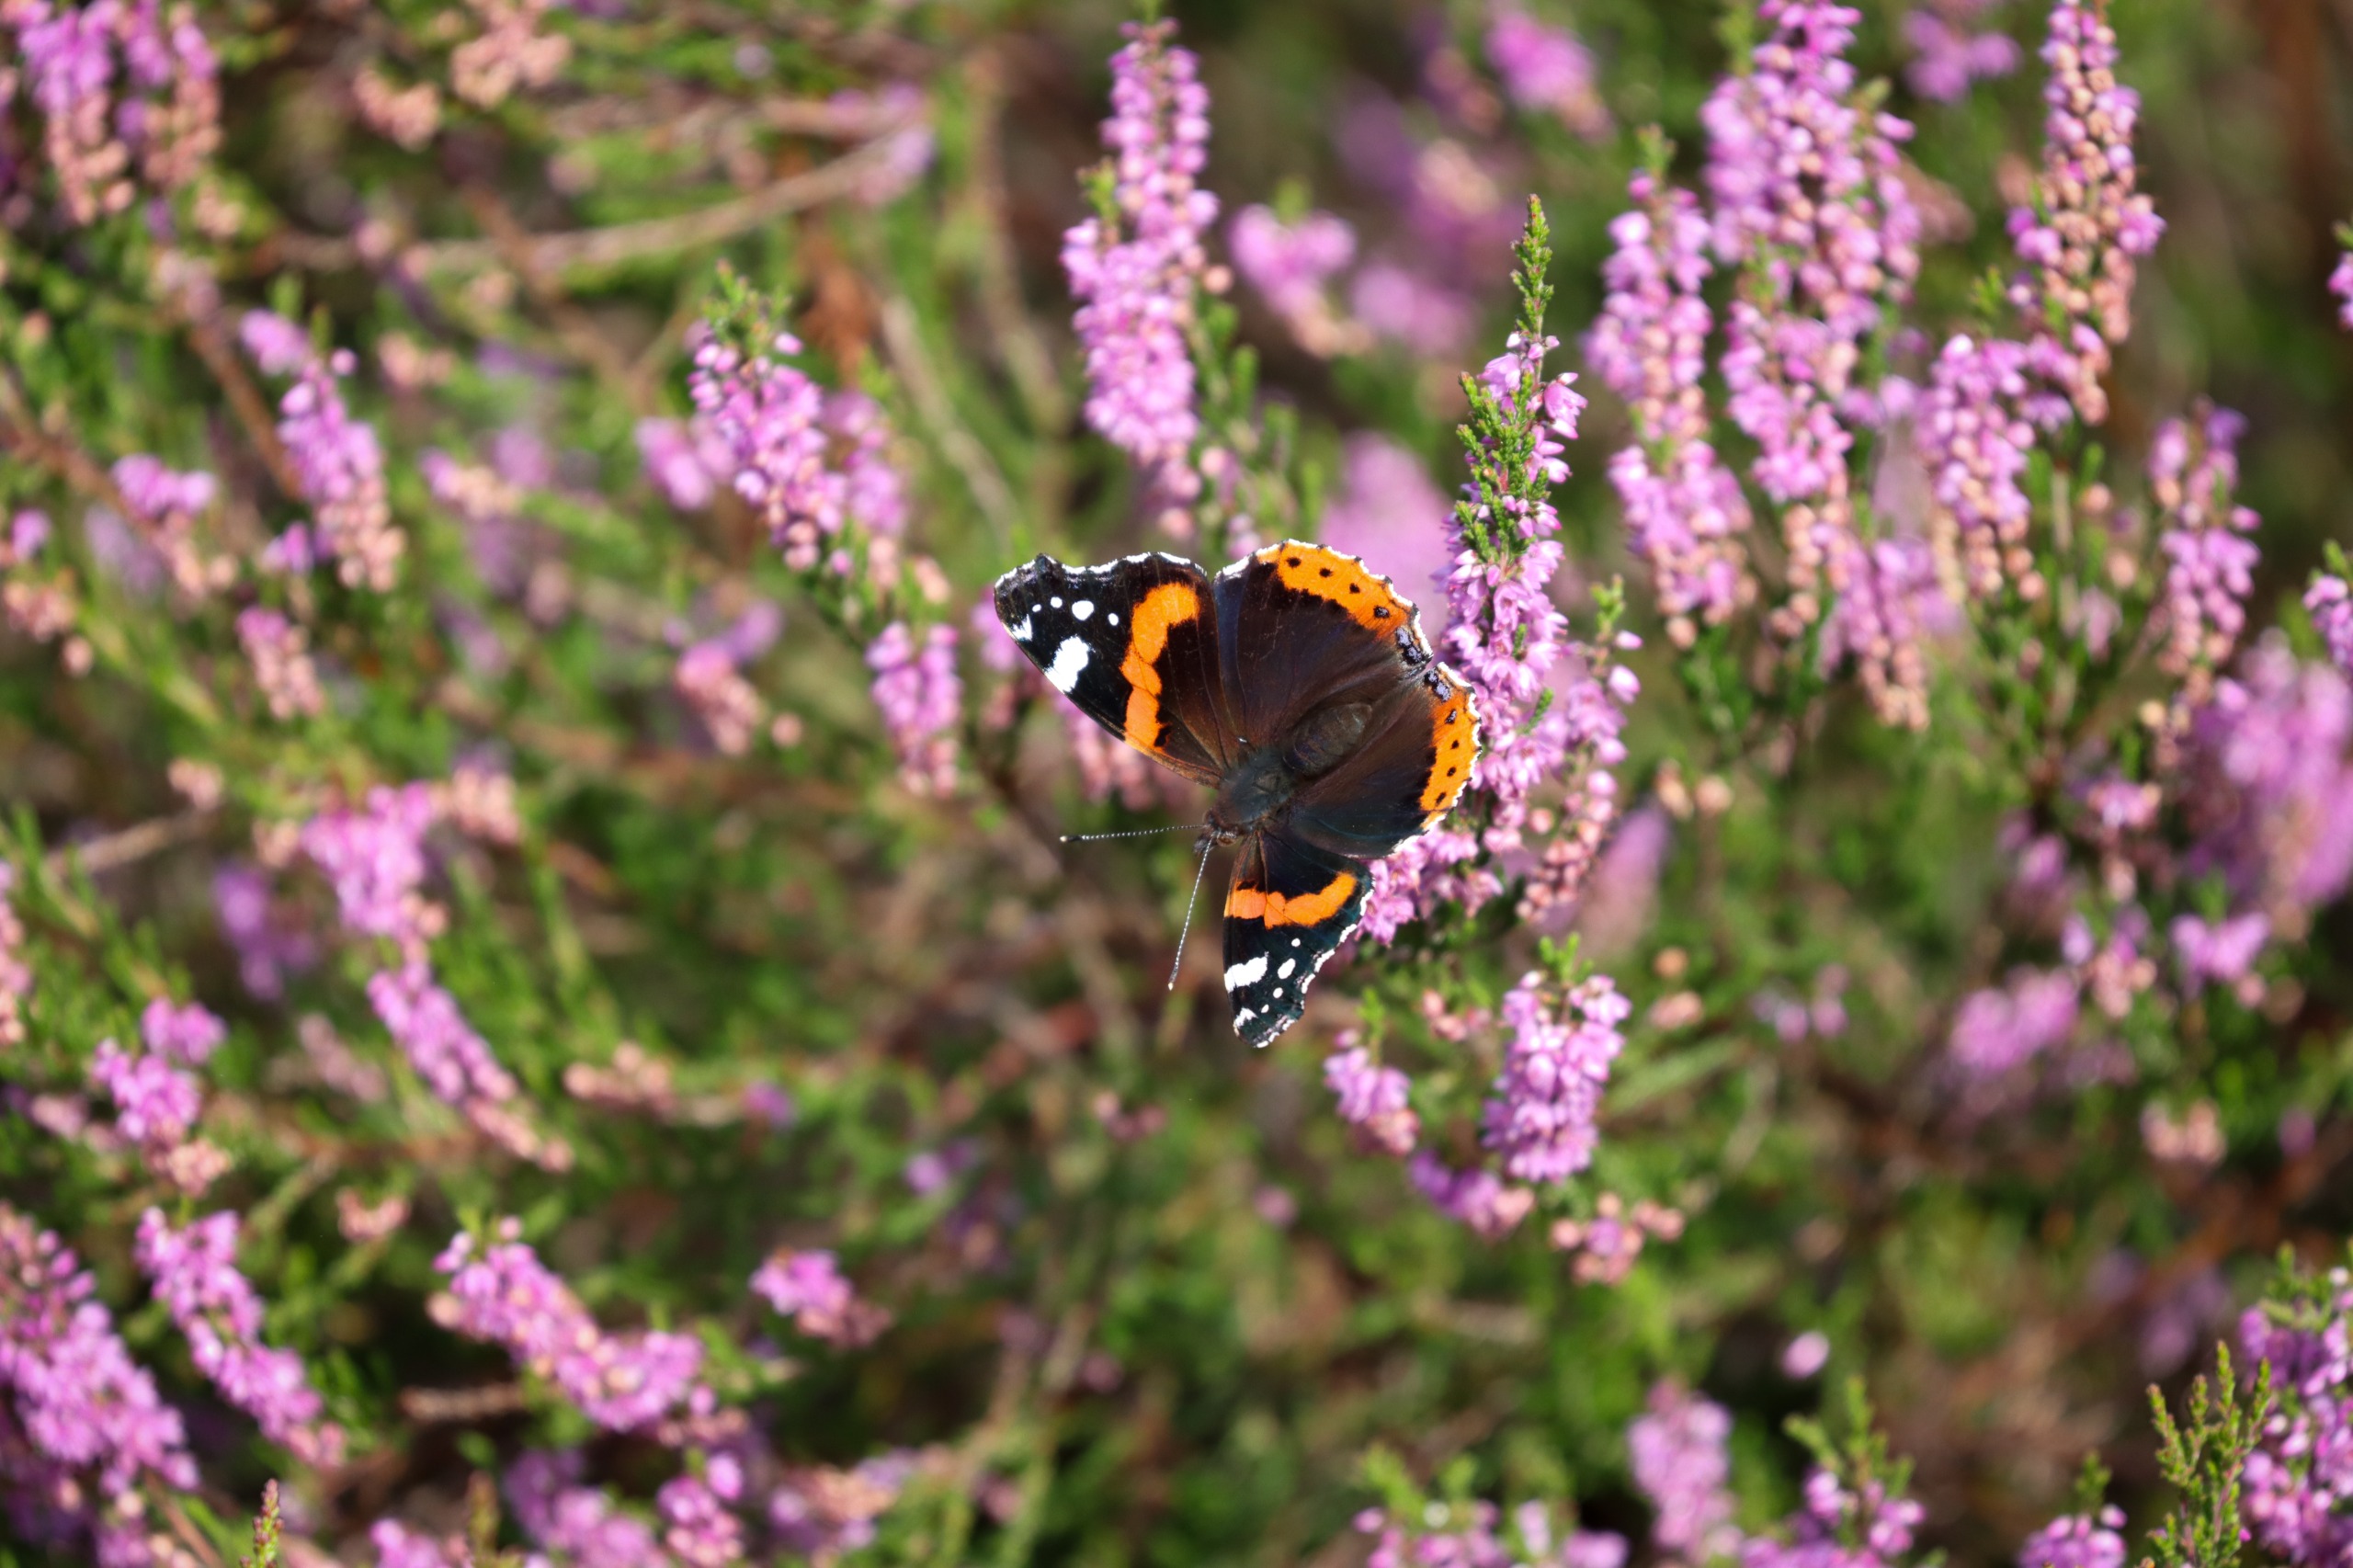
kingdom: Animalia
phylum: Arthropoda
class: Insecta
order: Lepidoptera
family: Nymphalidae
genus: Vanessa
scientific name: Vanessa atalanta
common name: Admiral
